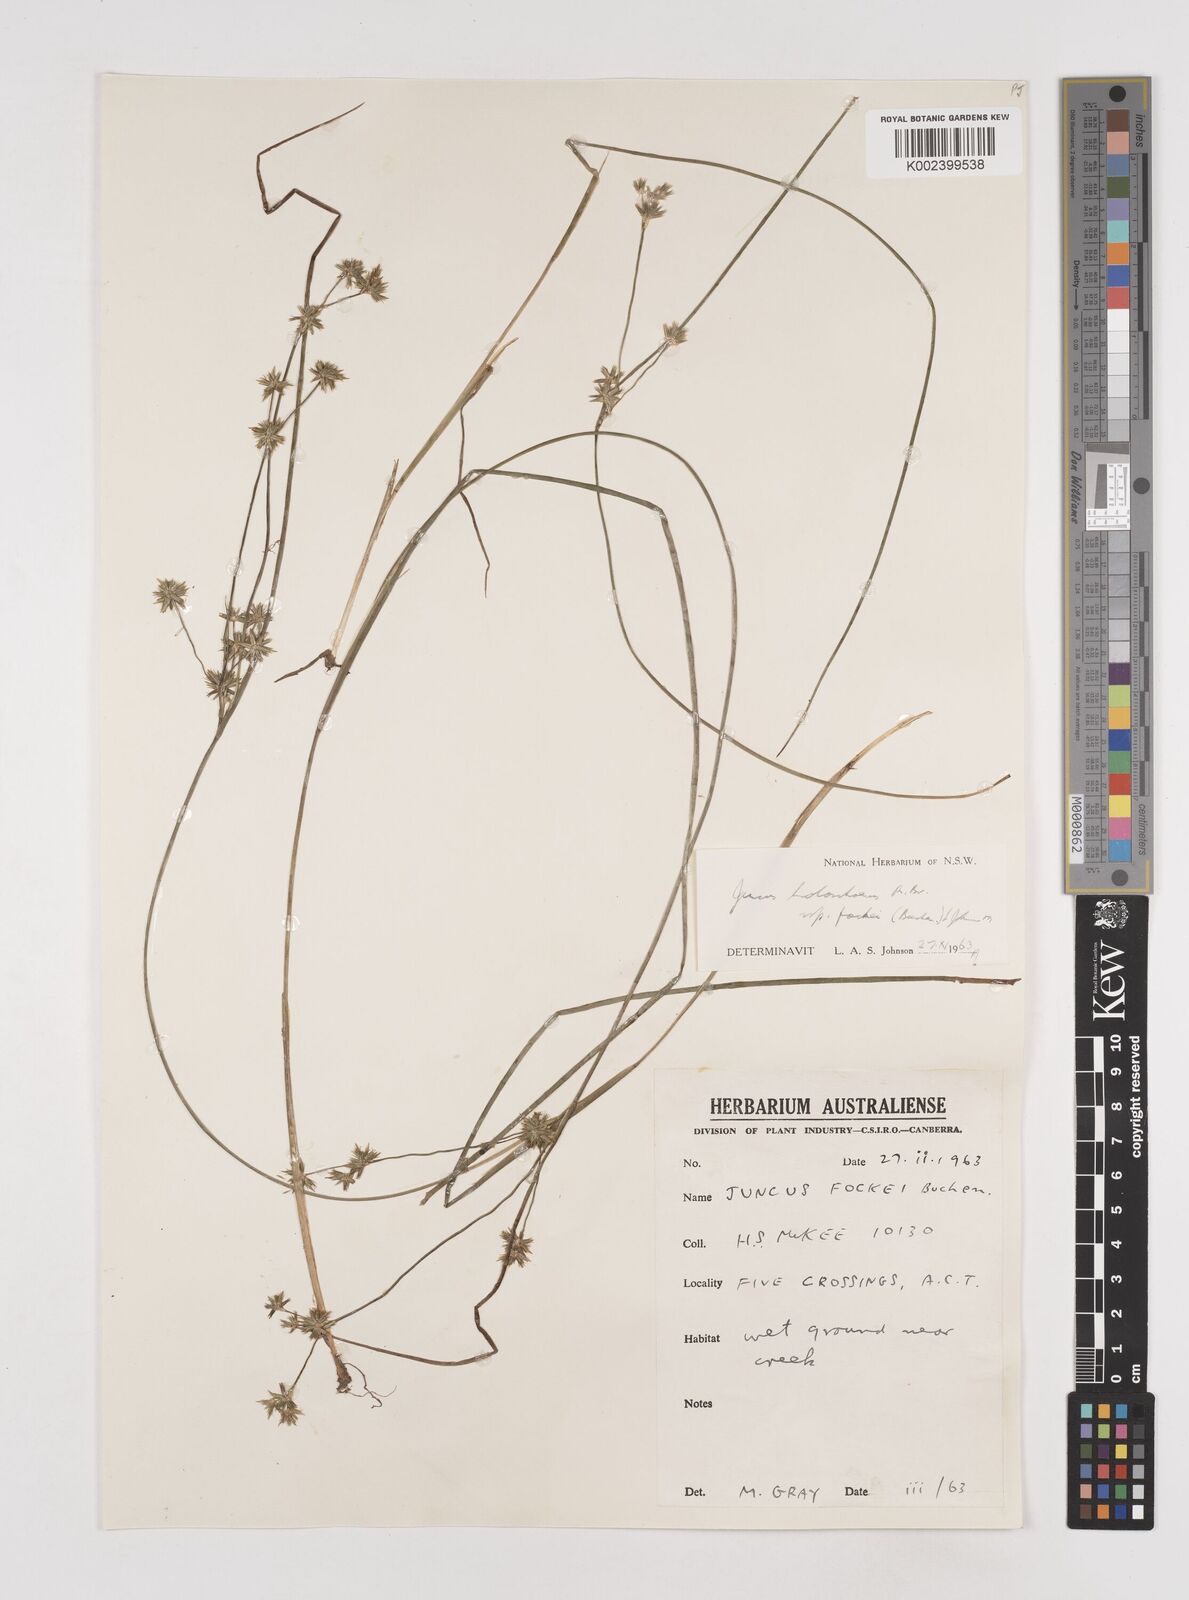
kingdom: Plantae
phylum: Tracheophyta
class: Liliopsida
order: Poales
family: Juncaceae
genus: Juncus
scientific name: Juncus holoschoenus
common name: Joint-leaf rush
